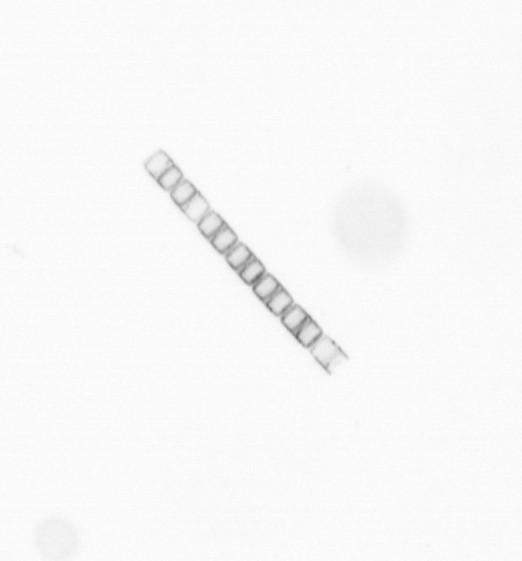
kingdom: Chromista
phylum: Ochrophyta
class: Bacillariophyceae
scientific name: Bacillariophyceae
